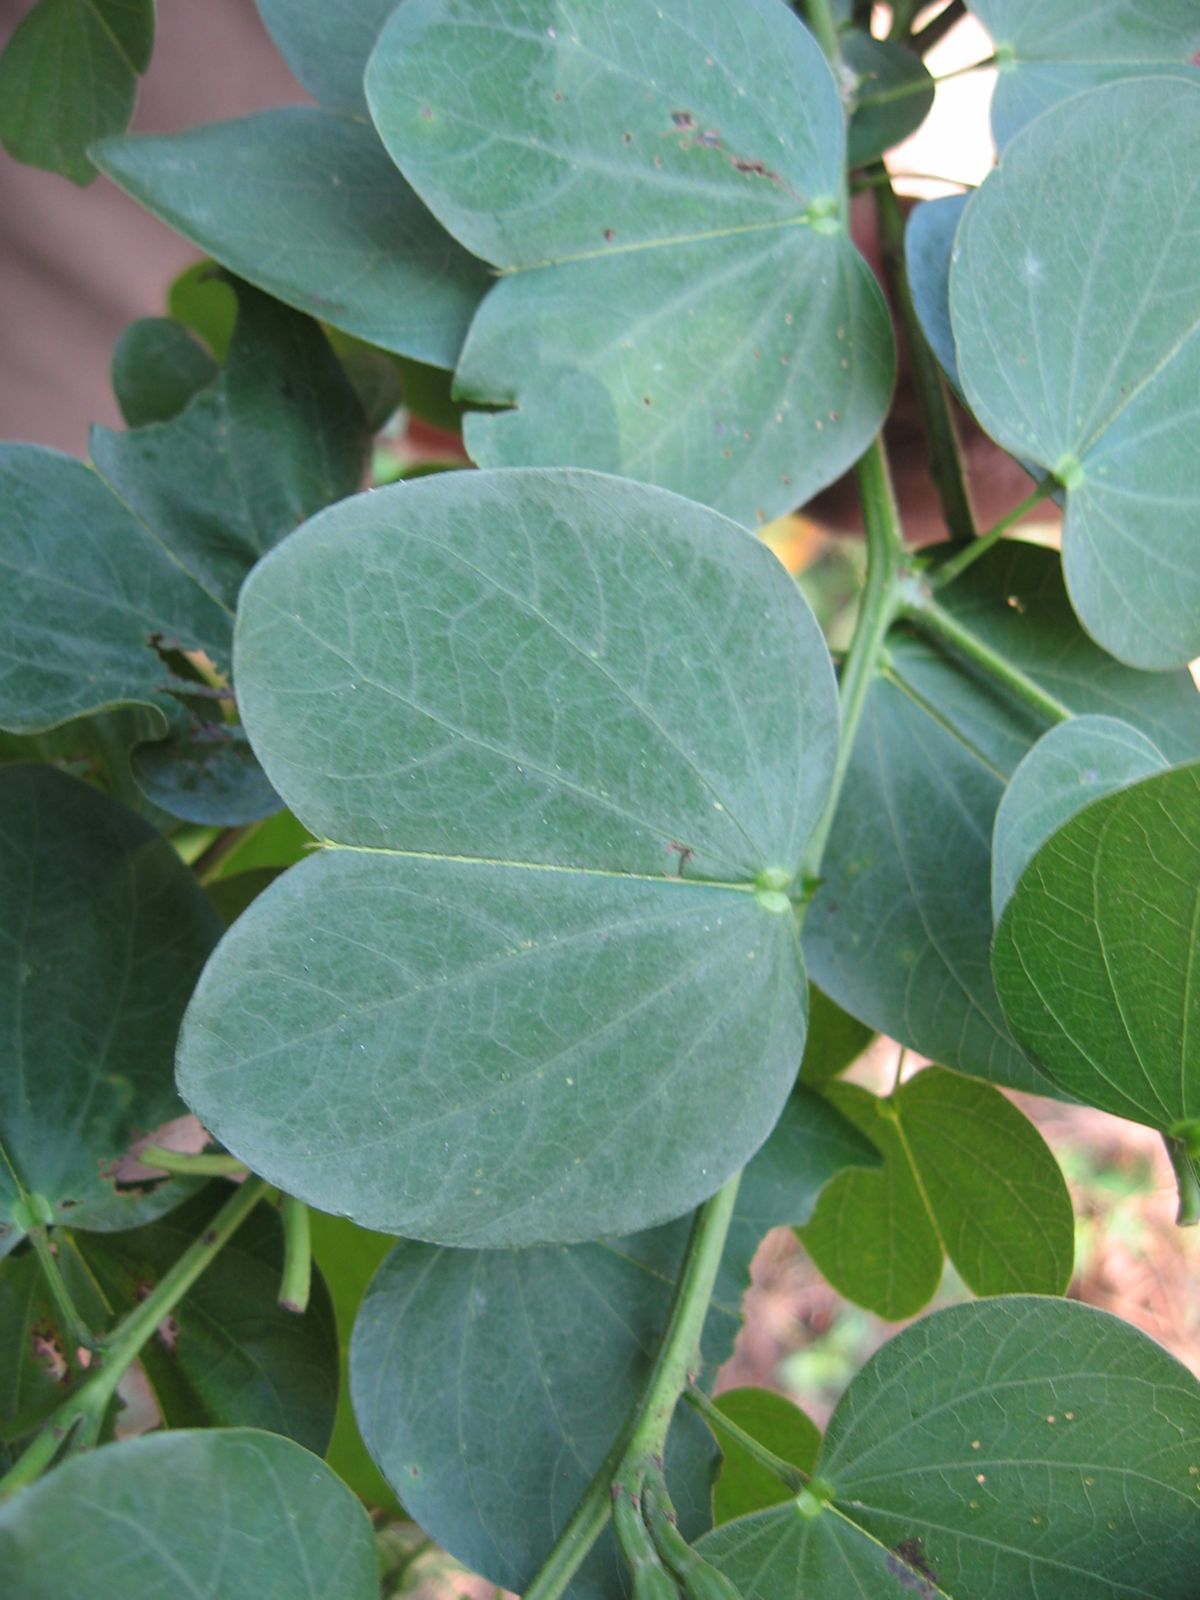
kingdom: Plantae
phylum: Tracheophyta
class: Magnoliopsida
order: Fabales
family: Fabaceae
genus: Bauhinia
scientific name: Bauhinia pauletia
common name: Railway-fence bauhinia
